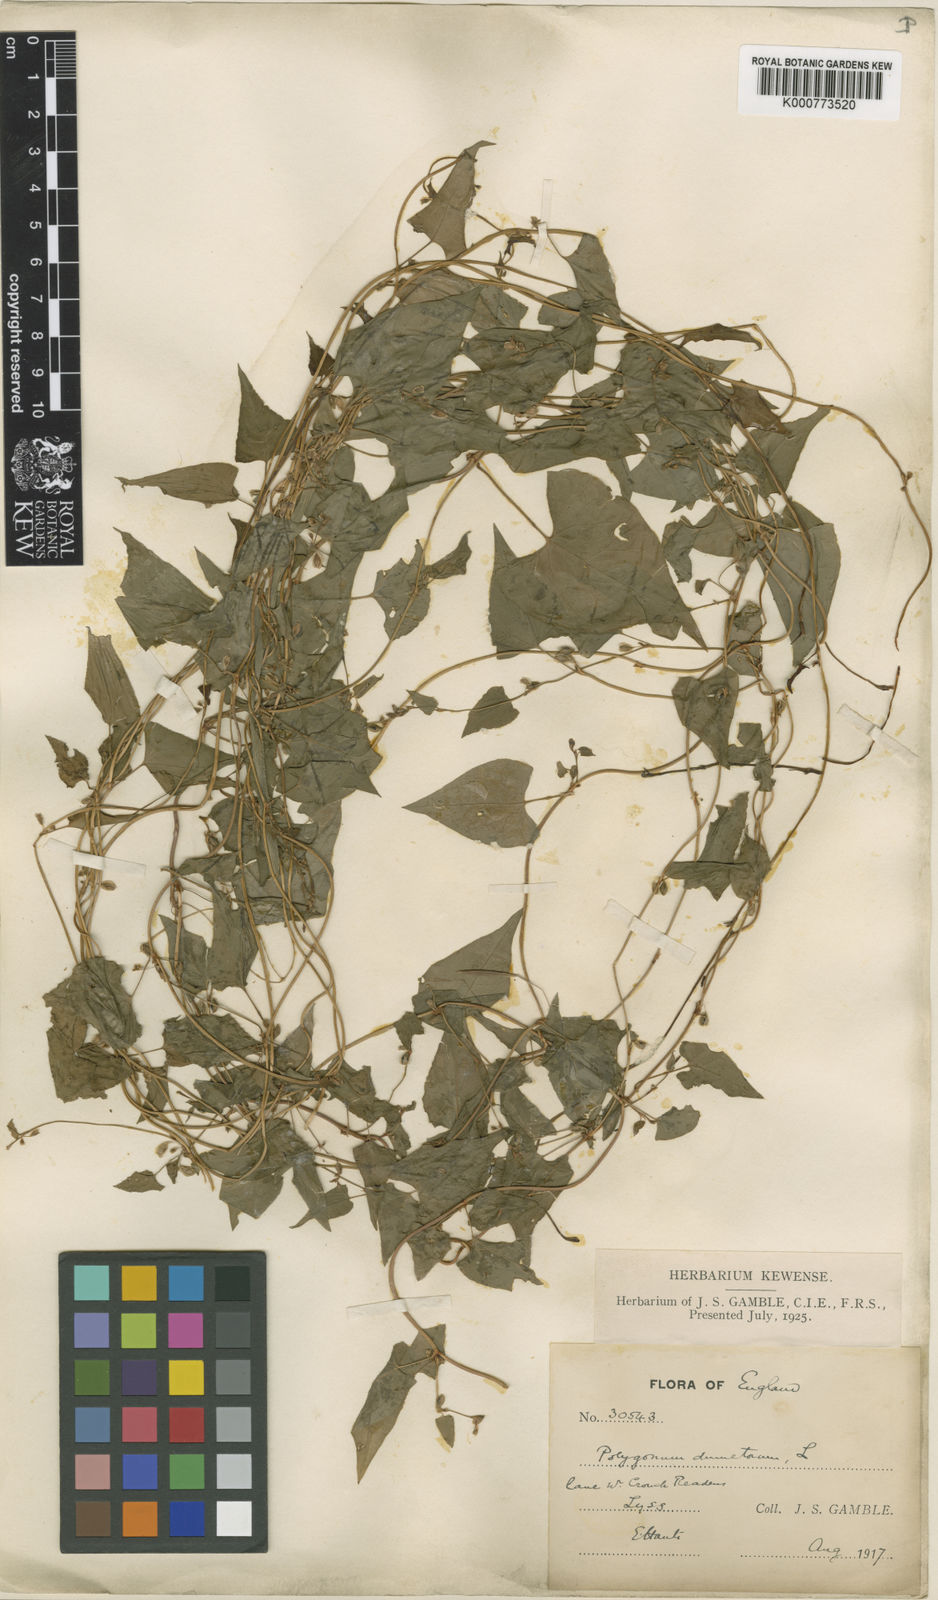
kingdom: Plantae
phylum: Tracheophyta
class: Magnoliopsida
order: Caryophyllales
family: Polygonaceae
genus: Fallopia
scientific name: Fallopia dumetorum
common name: Copse-bindweed
